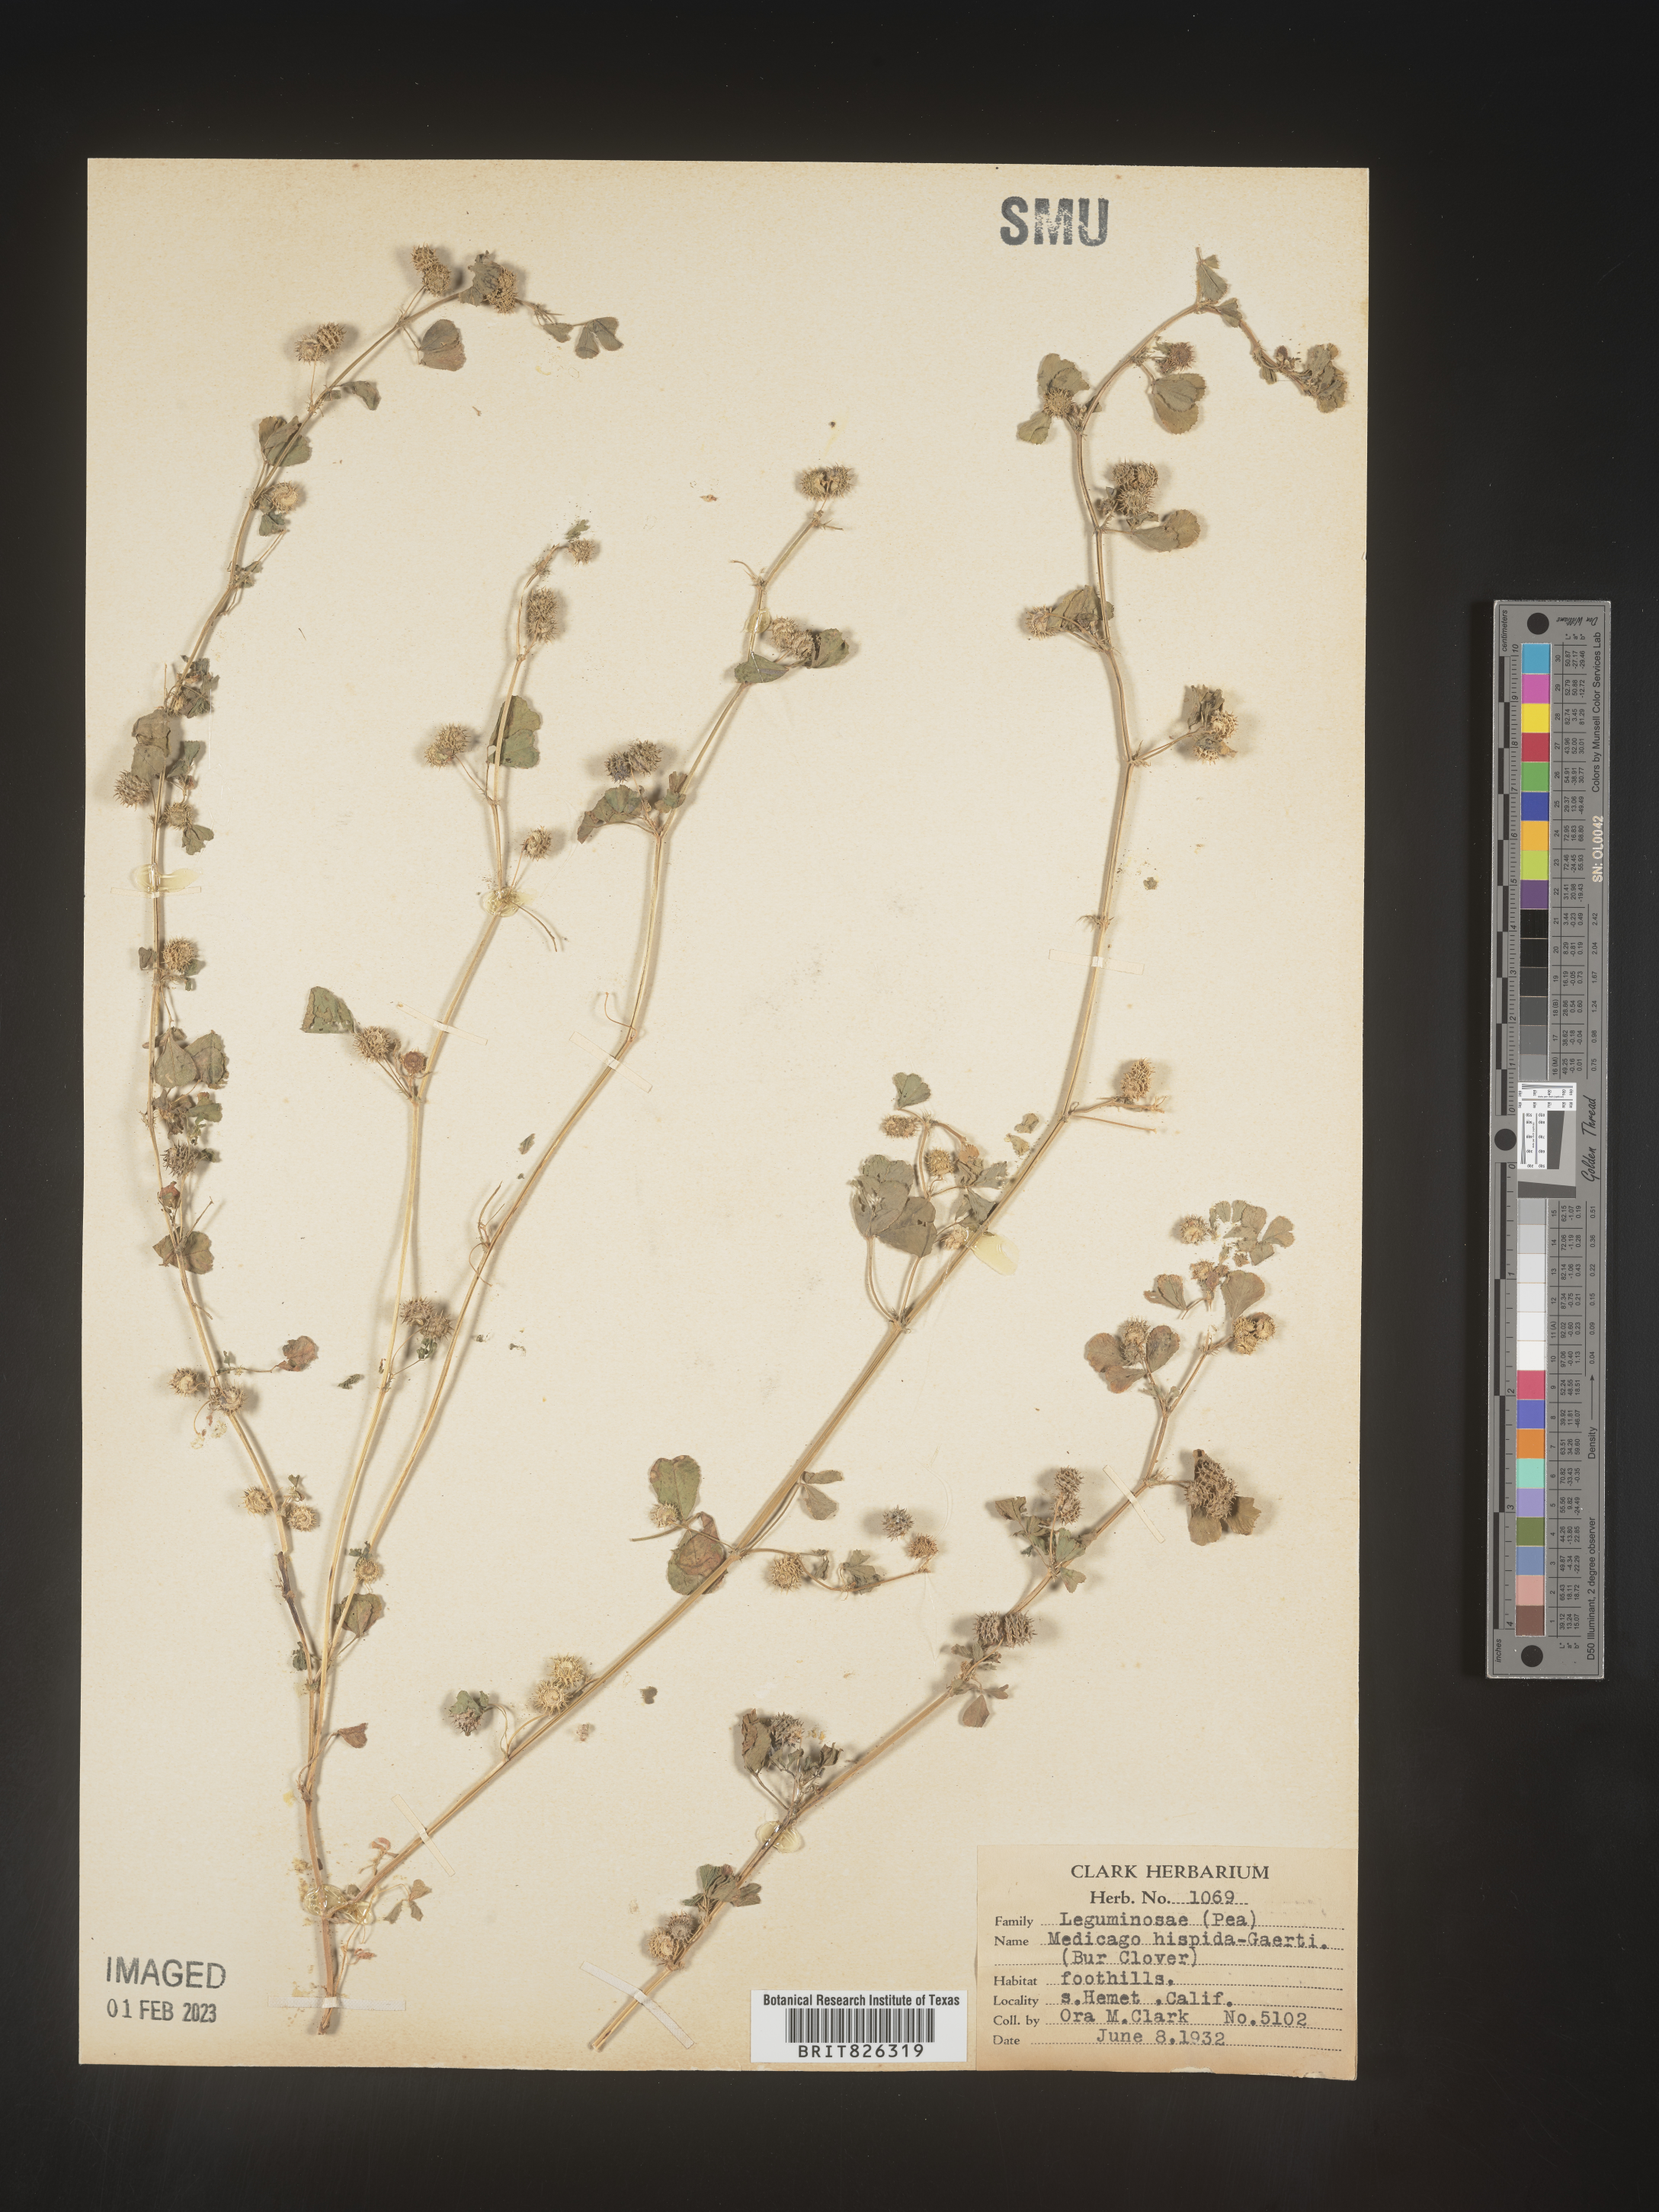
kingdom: Plantae
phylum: Tracheophyta
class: Magnoliopsida
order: Fabales
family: Fabaceae
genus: Medicago
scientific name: Medicago polymorpha
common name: Burclover
